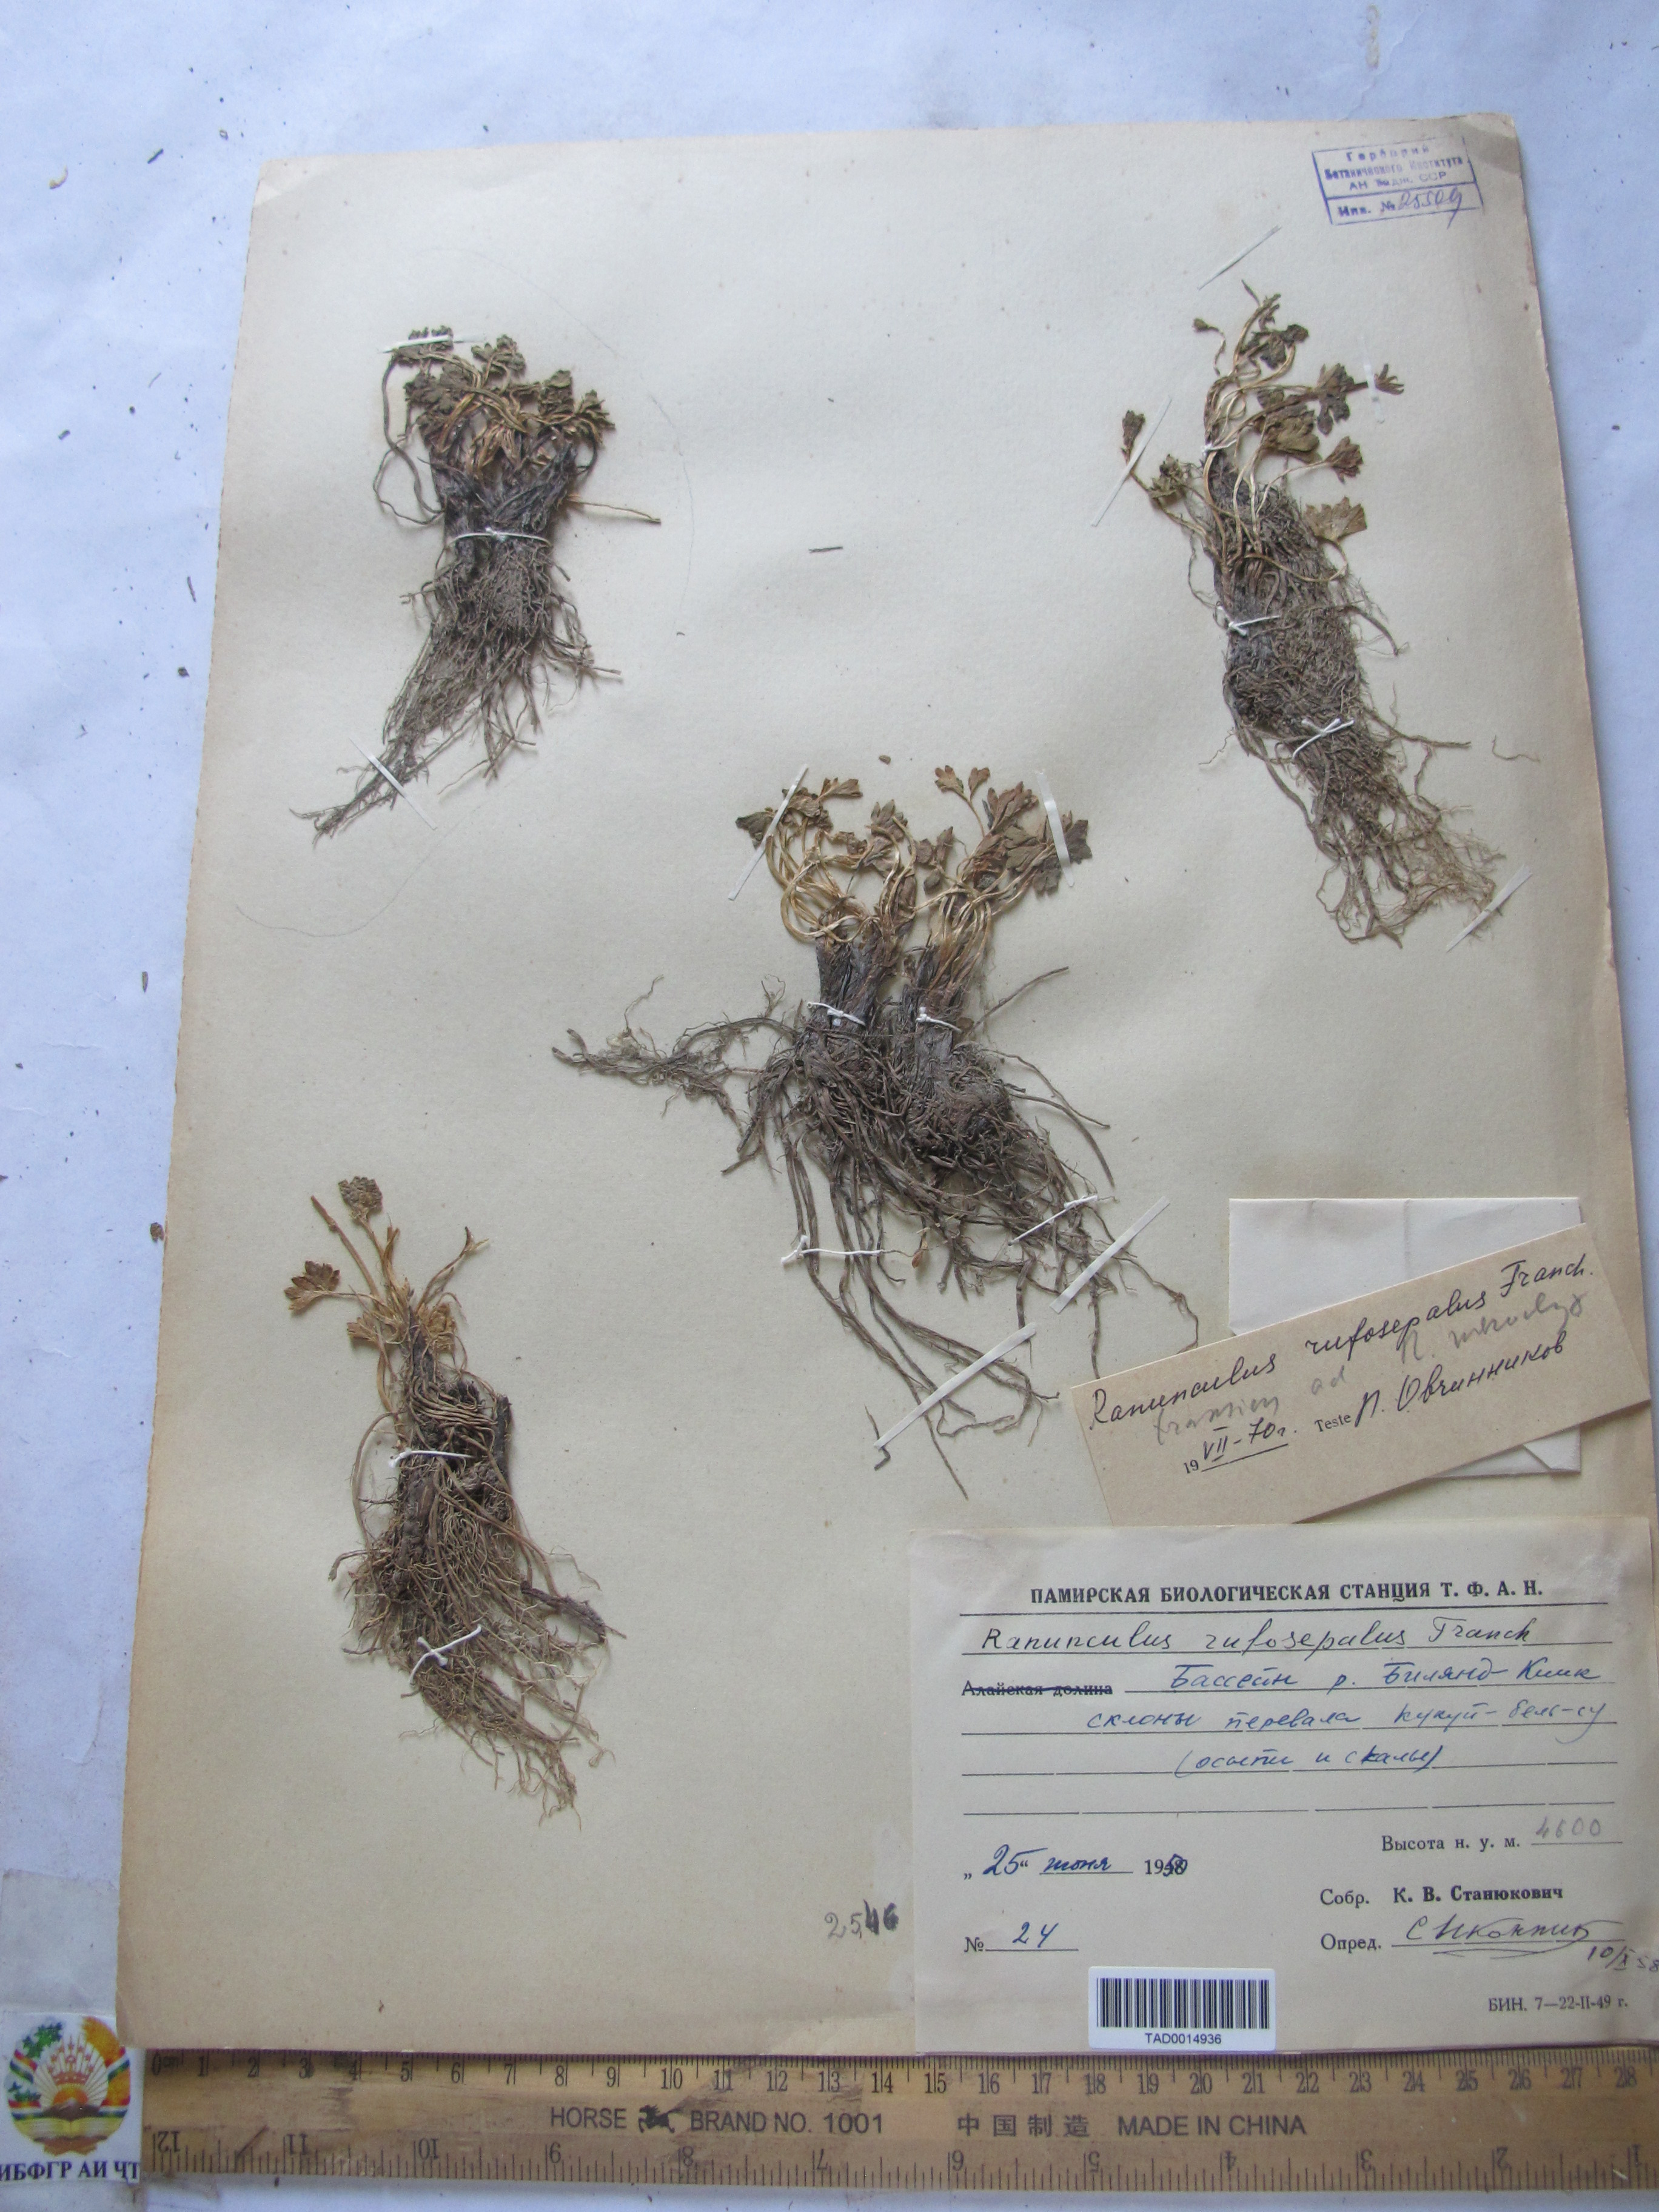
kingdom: Plantae
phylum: Tracheophyta
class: Magnoliopsida
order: Ranunculales
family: Ranunculaceae
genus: Ranunculus
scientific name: Ranunculus rufosepalus
